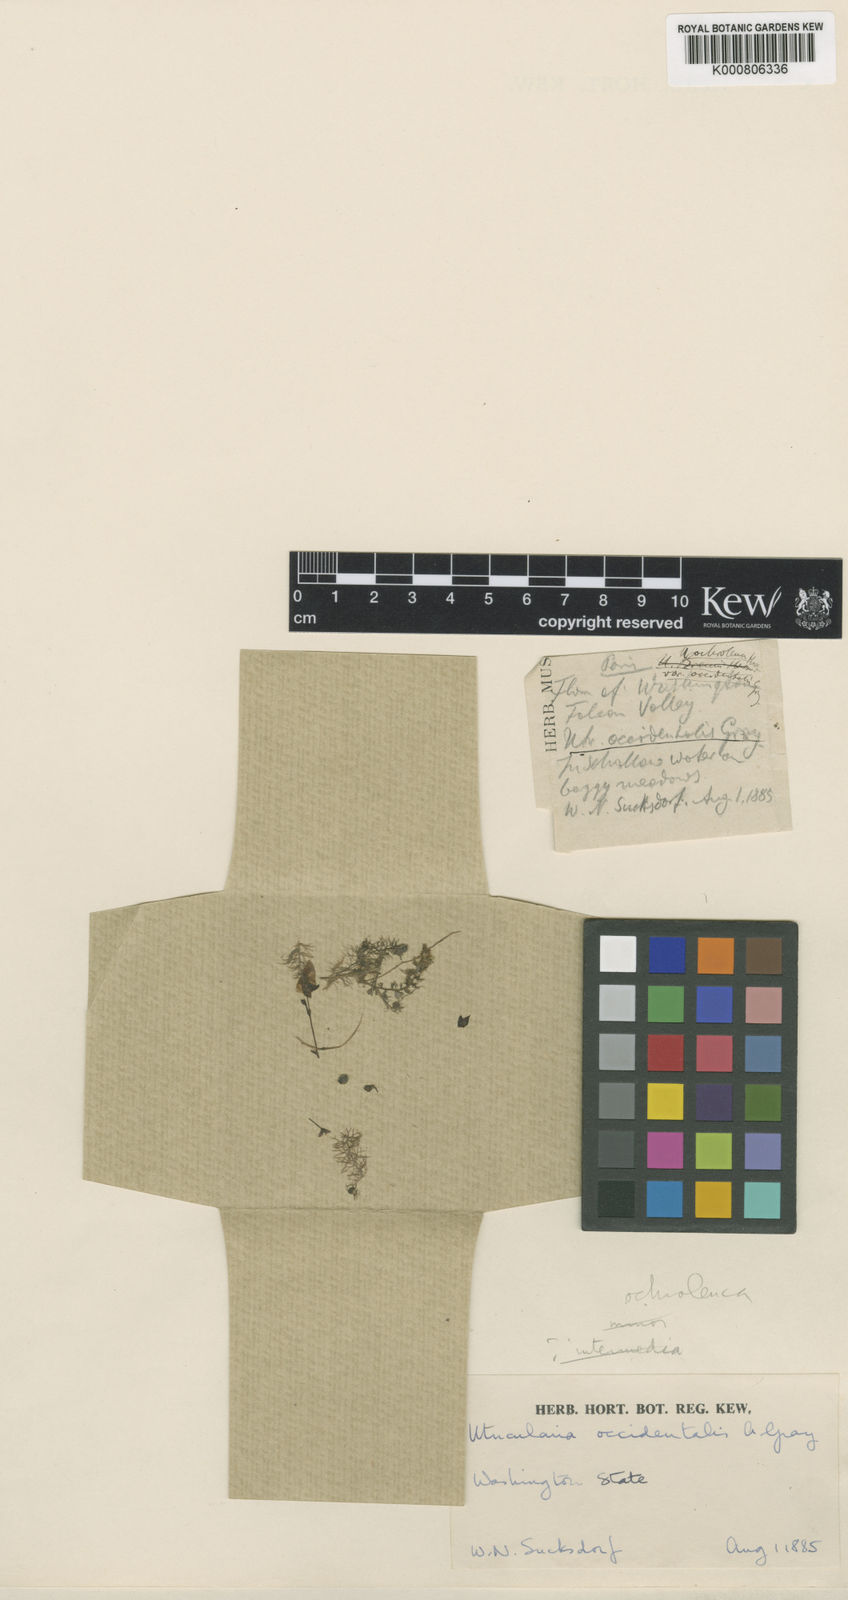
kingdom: Plantae
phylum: Tracheophyta
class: Magnoliopsida
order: Lamiales
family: Lentibulariaceae
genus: Utricularia
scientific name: Utricularia ochroleuca
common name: Pale bladderwort
